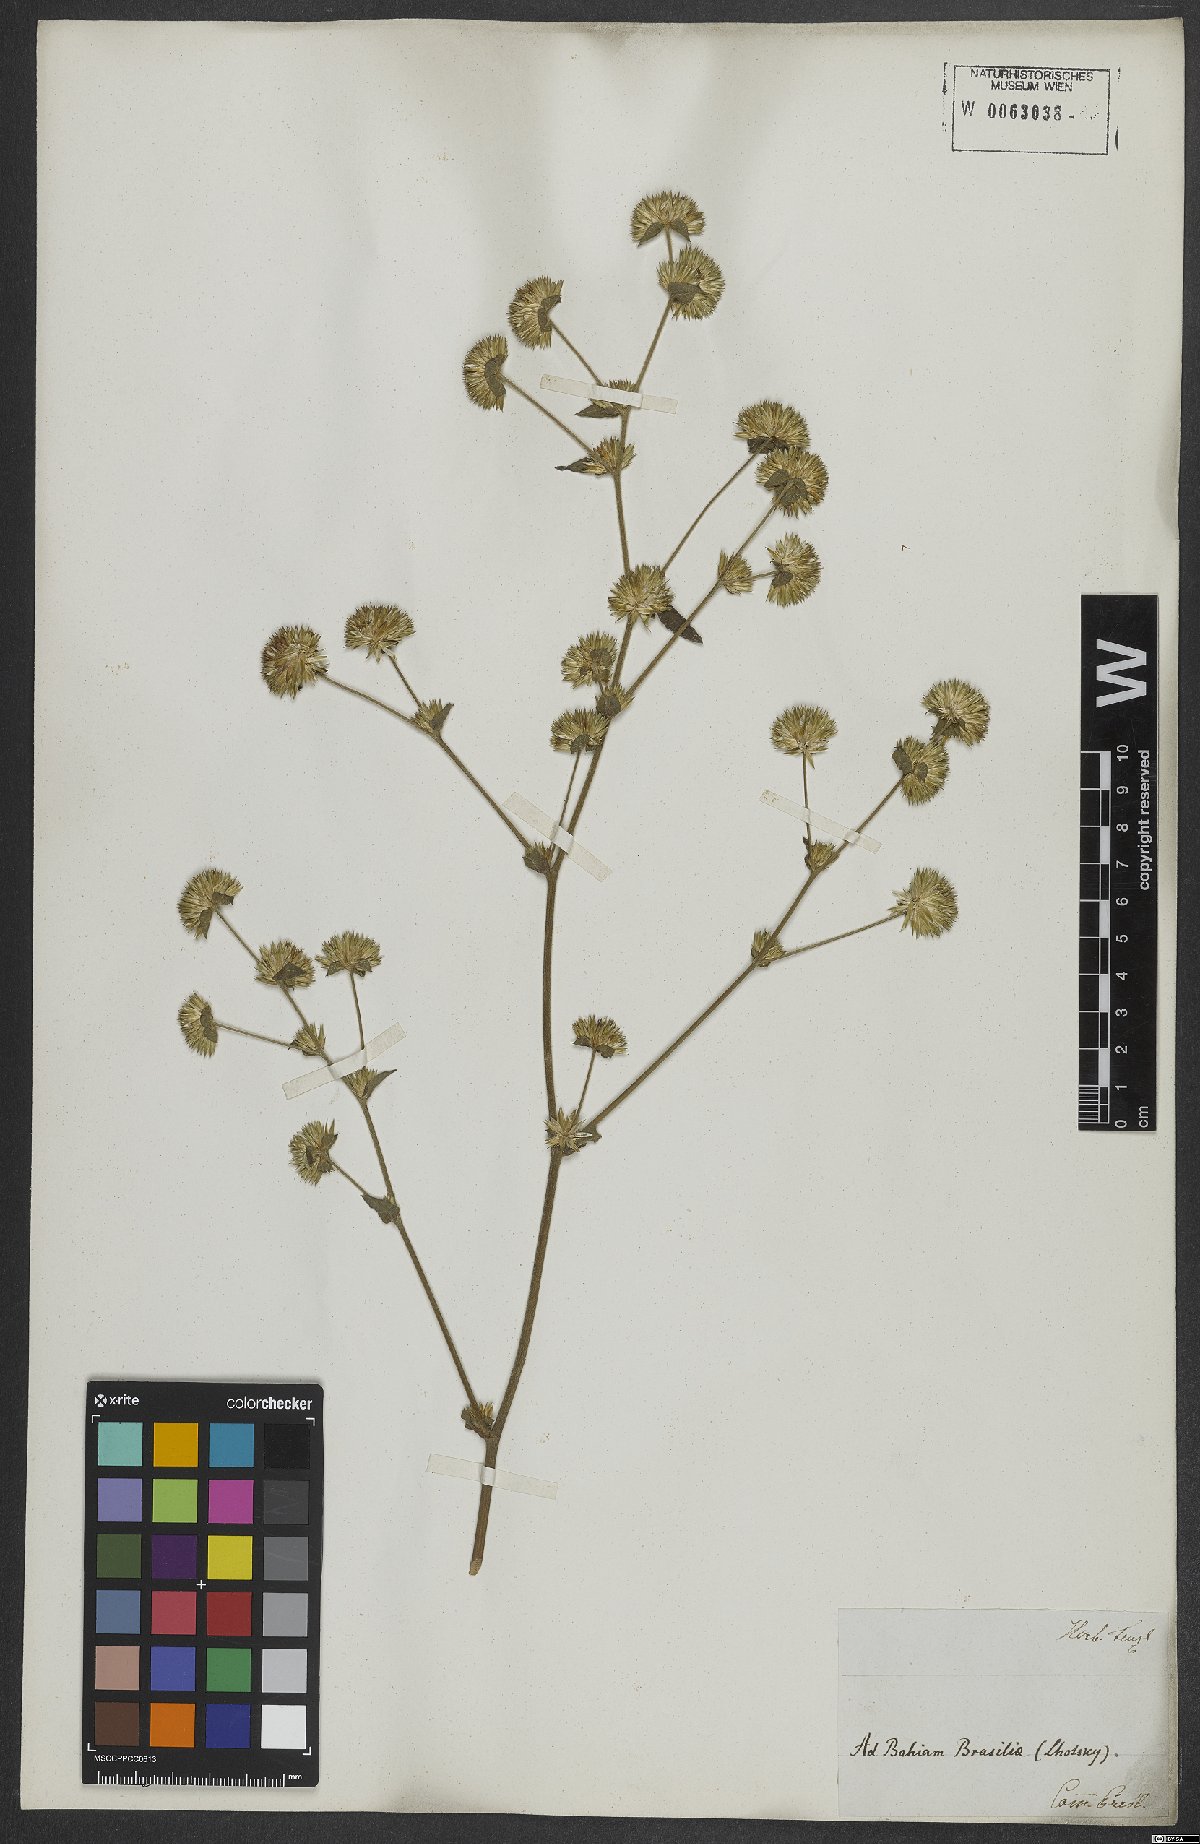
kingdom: Plantae
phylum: Tracheophyta
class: Magnoliopsida
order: Asterales
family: Asteraceae
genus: Elephantopus
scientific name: Elephantopus mollis
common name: Soft elephantsfoot
